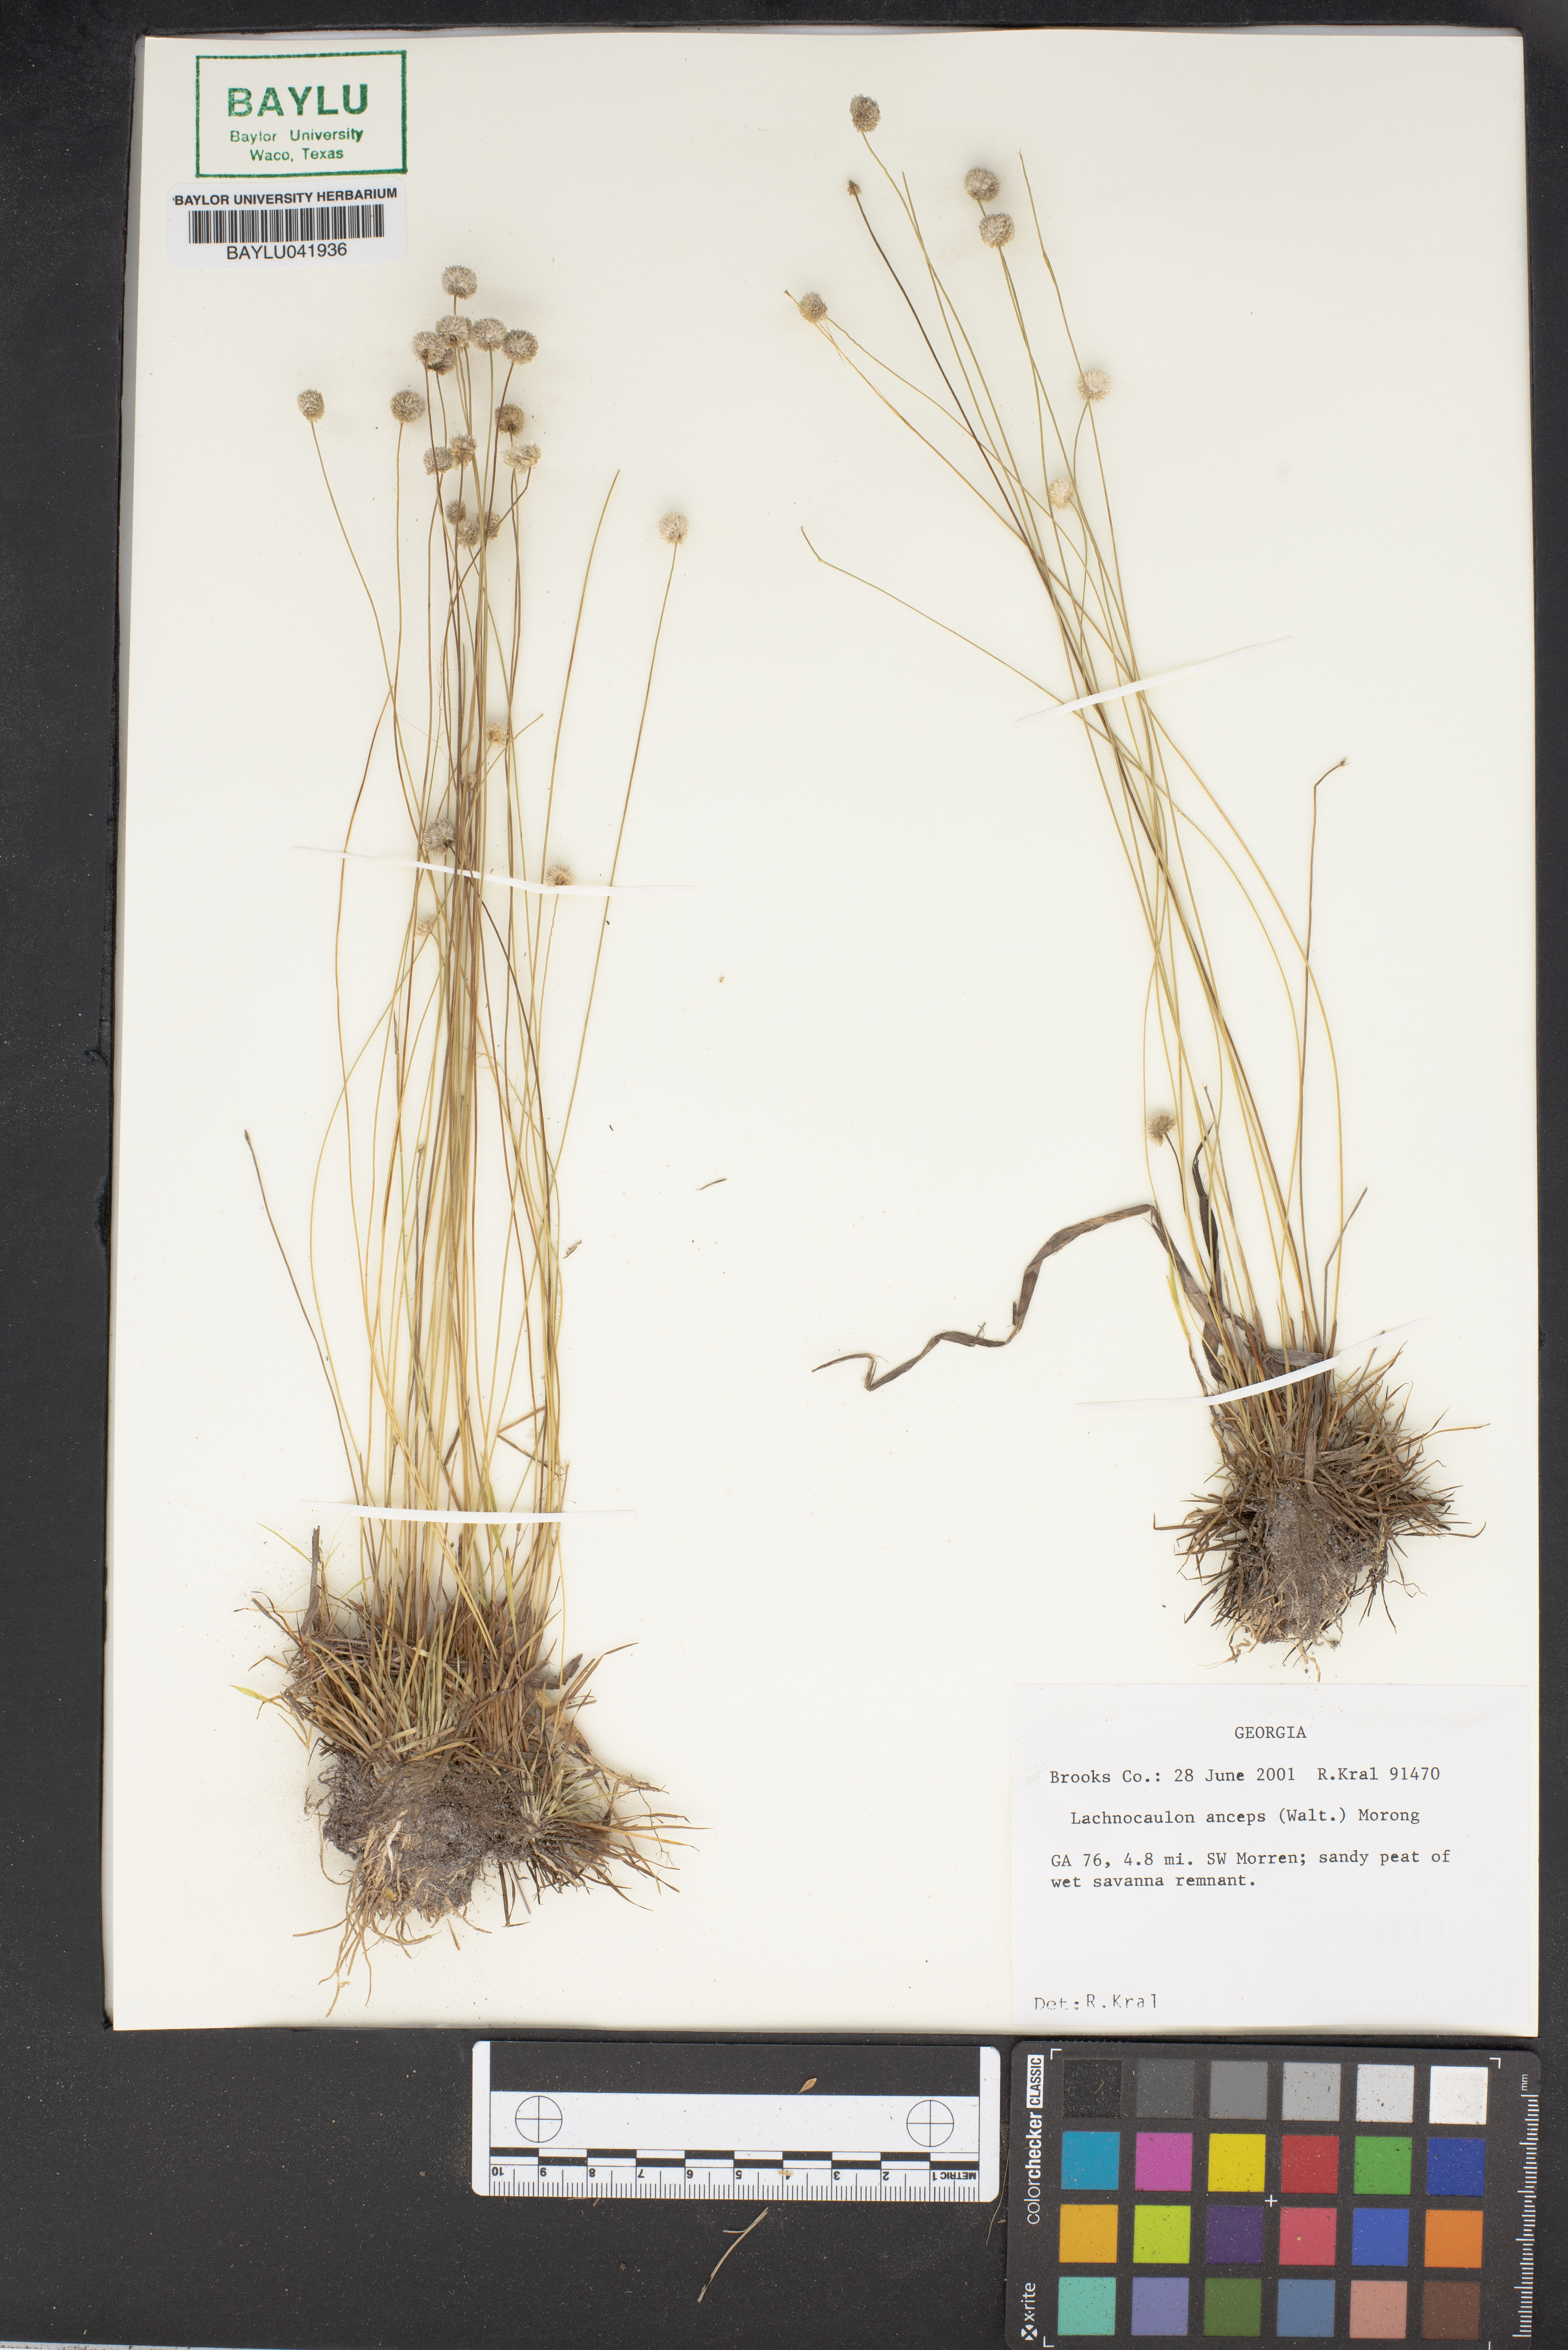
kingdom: Plantae
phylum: Tracheophyta
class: Liliopsida
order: Poales
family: Eriocaulaceae
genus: Paepalanthus
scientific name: Paepalanthus anceps
